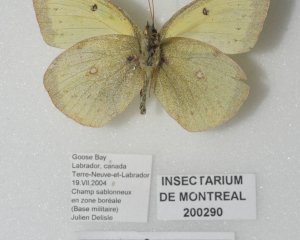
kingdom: Animalia
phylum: Arthropoda
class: Insecta
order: Lepidoptera
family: Pieridae
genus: Colias
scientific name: Colias philodice
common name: Clouded Sulphur
